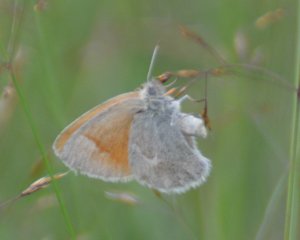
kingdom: Animalia
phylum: Arthropoda
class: Insecta
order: Lepidoptera
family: Nymphalidae
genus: Coenonympha
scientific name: Coenonympha tullia
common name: Large Heath
